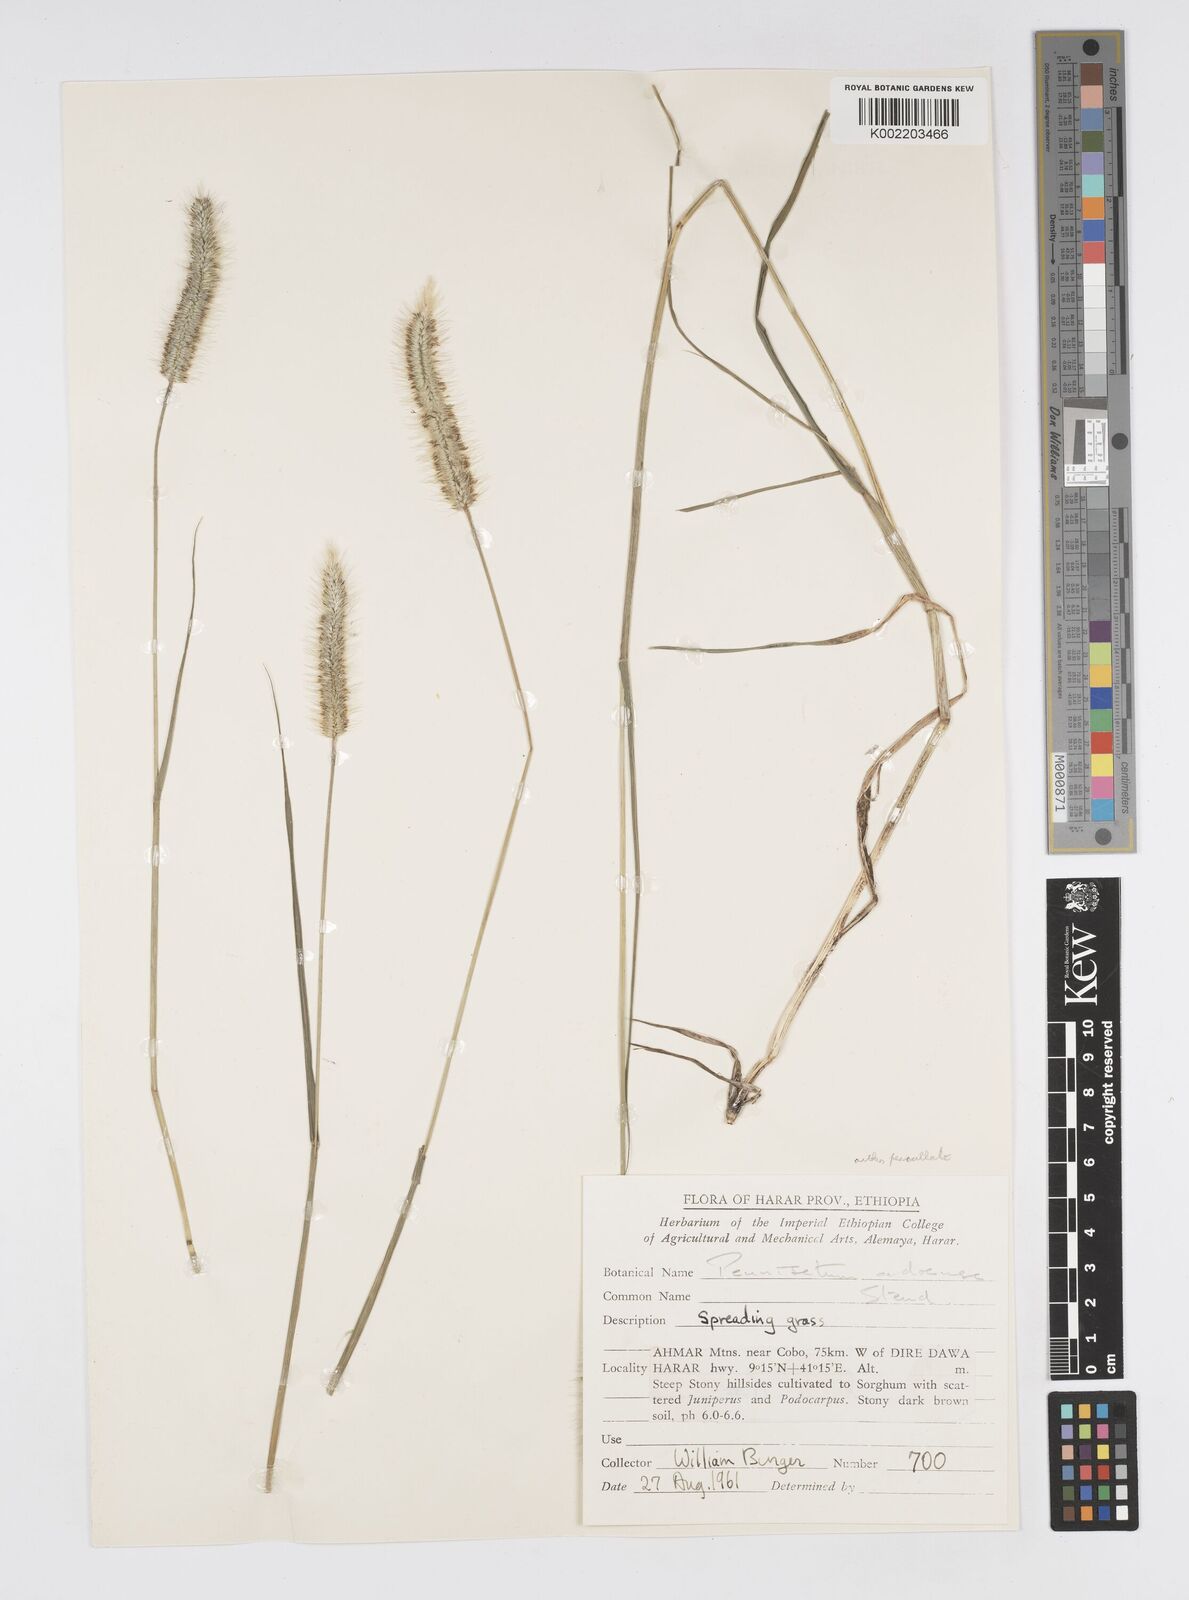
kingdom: Plantae
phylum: Tracheophyta
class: Liliopsida
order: Poales
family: Poaceae
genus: Cenchrus
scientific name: Cenchrus geniculatus
